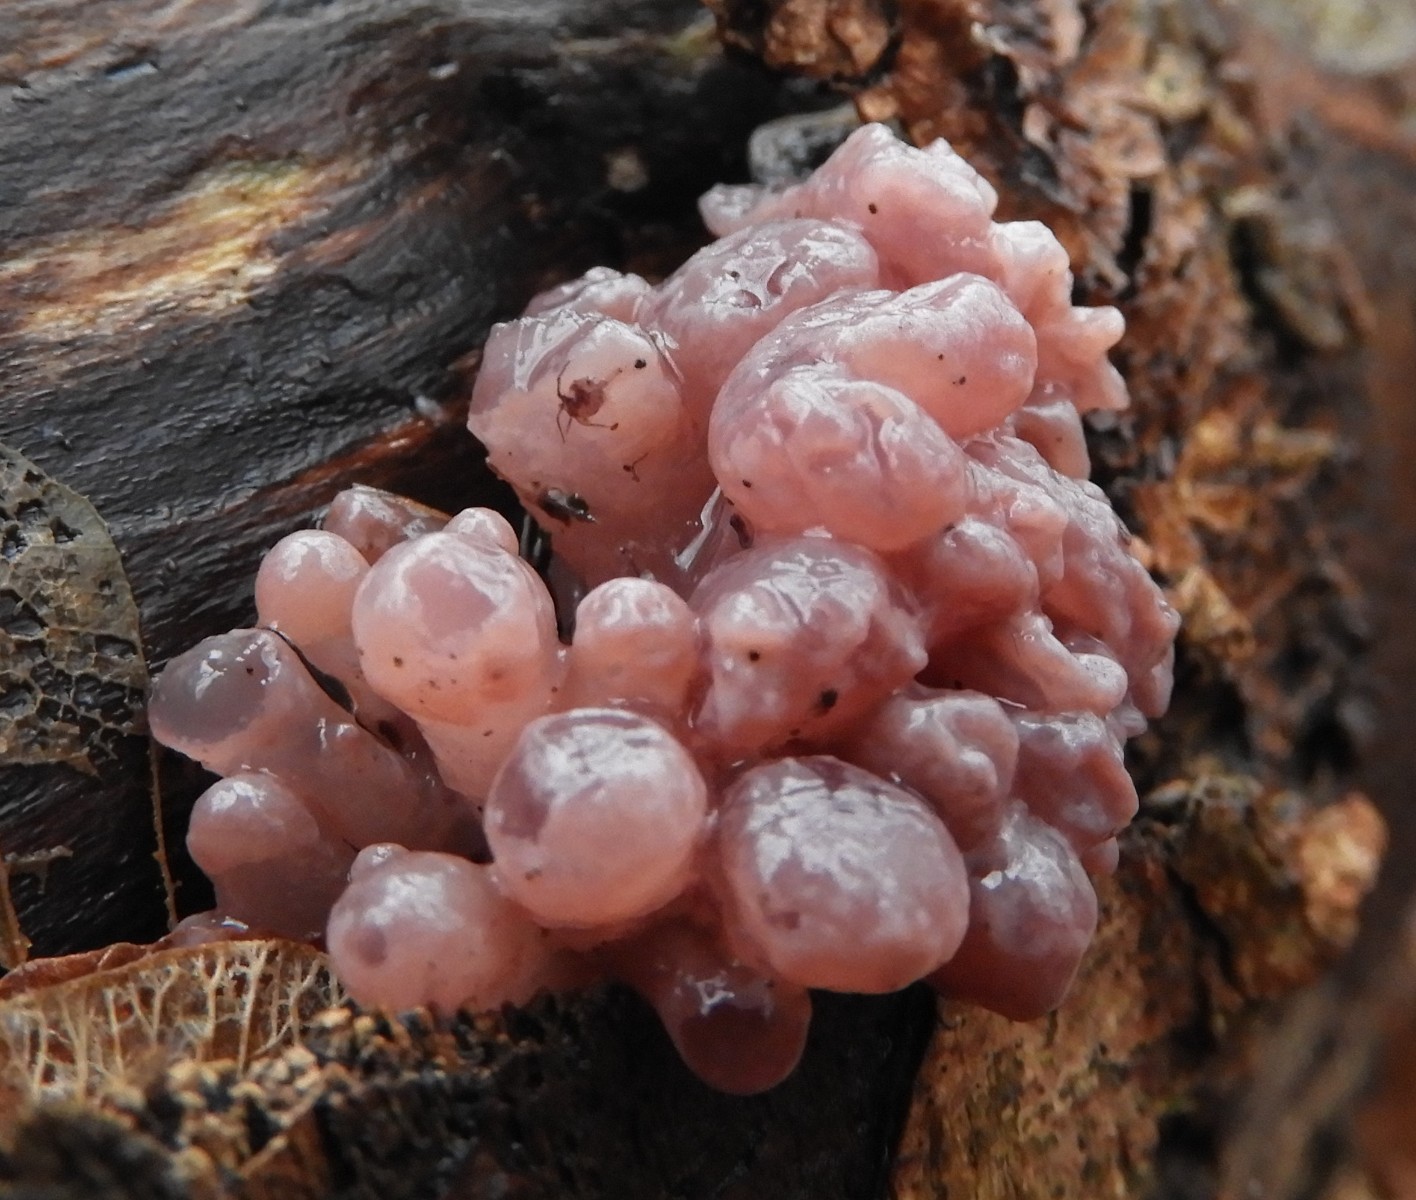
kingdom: Fungi
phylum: Ascomycota
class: Leotiomycetes
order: Helotiales
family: Gelatinodiscaceae
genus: Ascocoryne
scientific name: Ascocoryne sarcoides
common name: rødlilla sejskive
